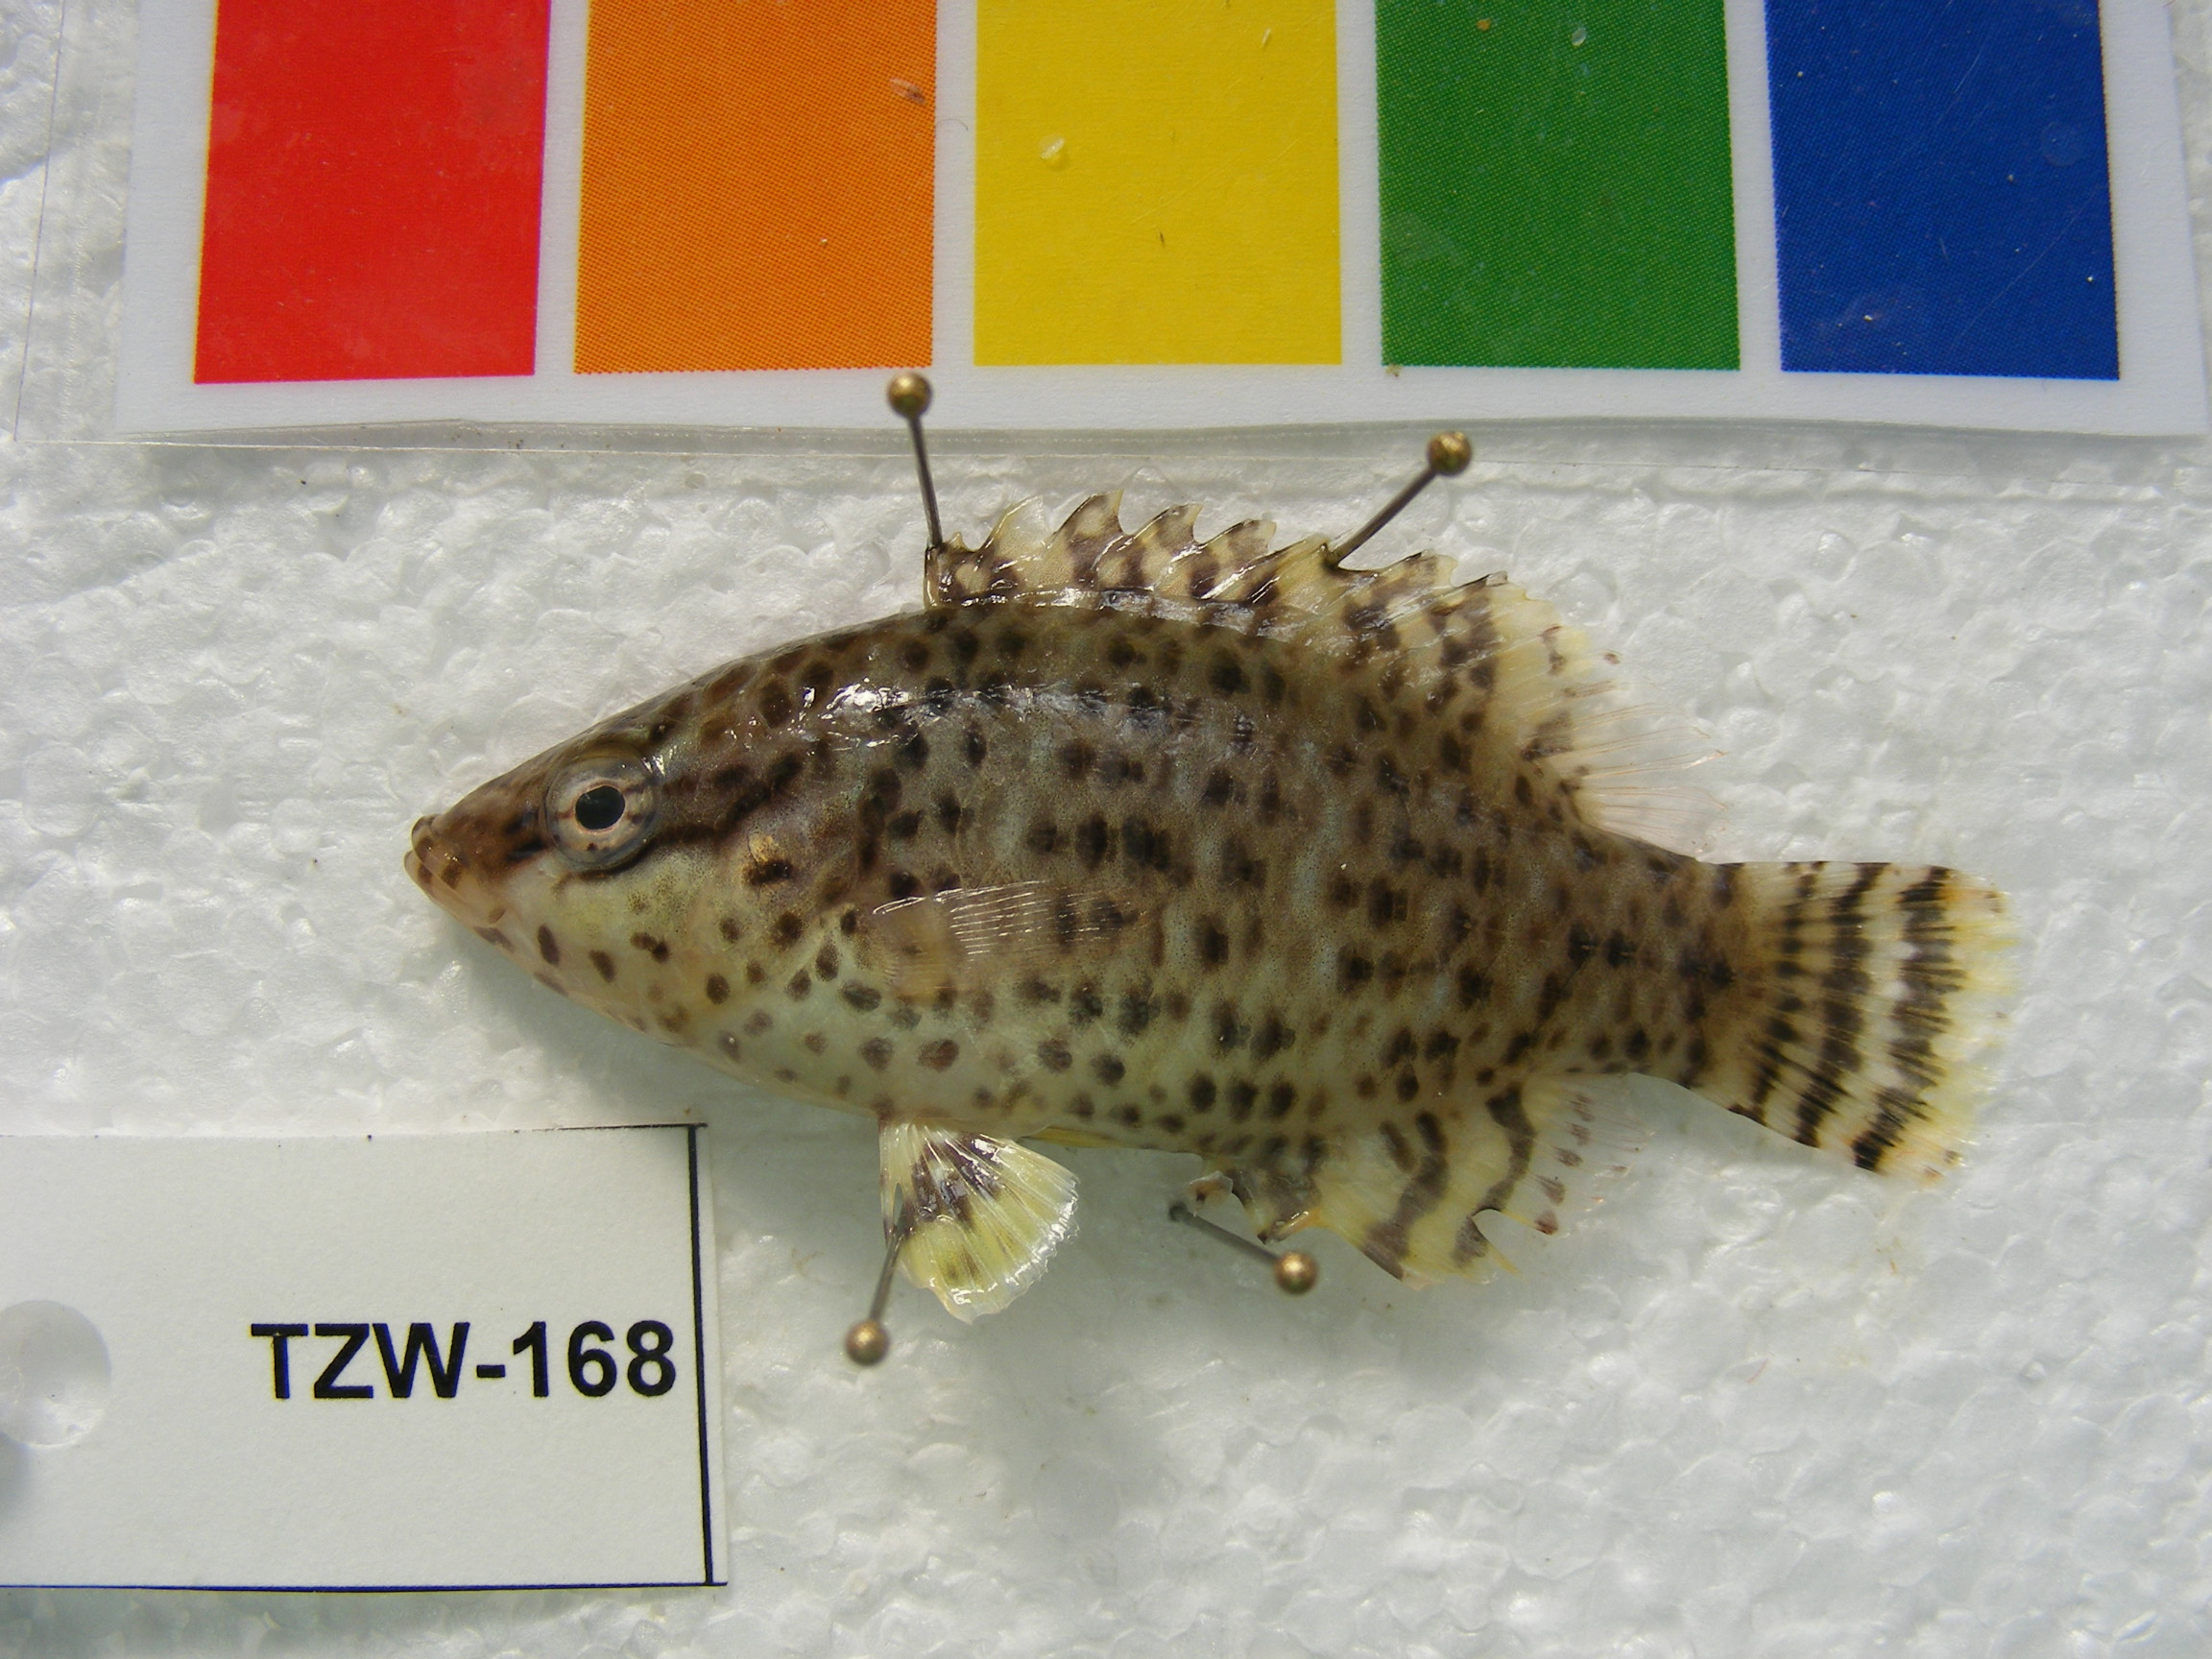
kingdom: Animalia
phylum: Chordata
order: Perciformes
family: Labridae
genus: Cheilinus
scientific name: Cheilinus undulatus
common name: Humphead wrasse
